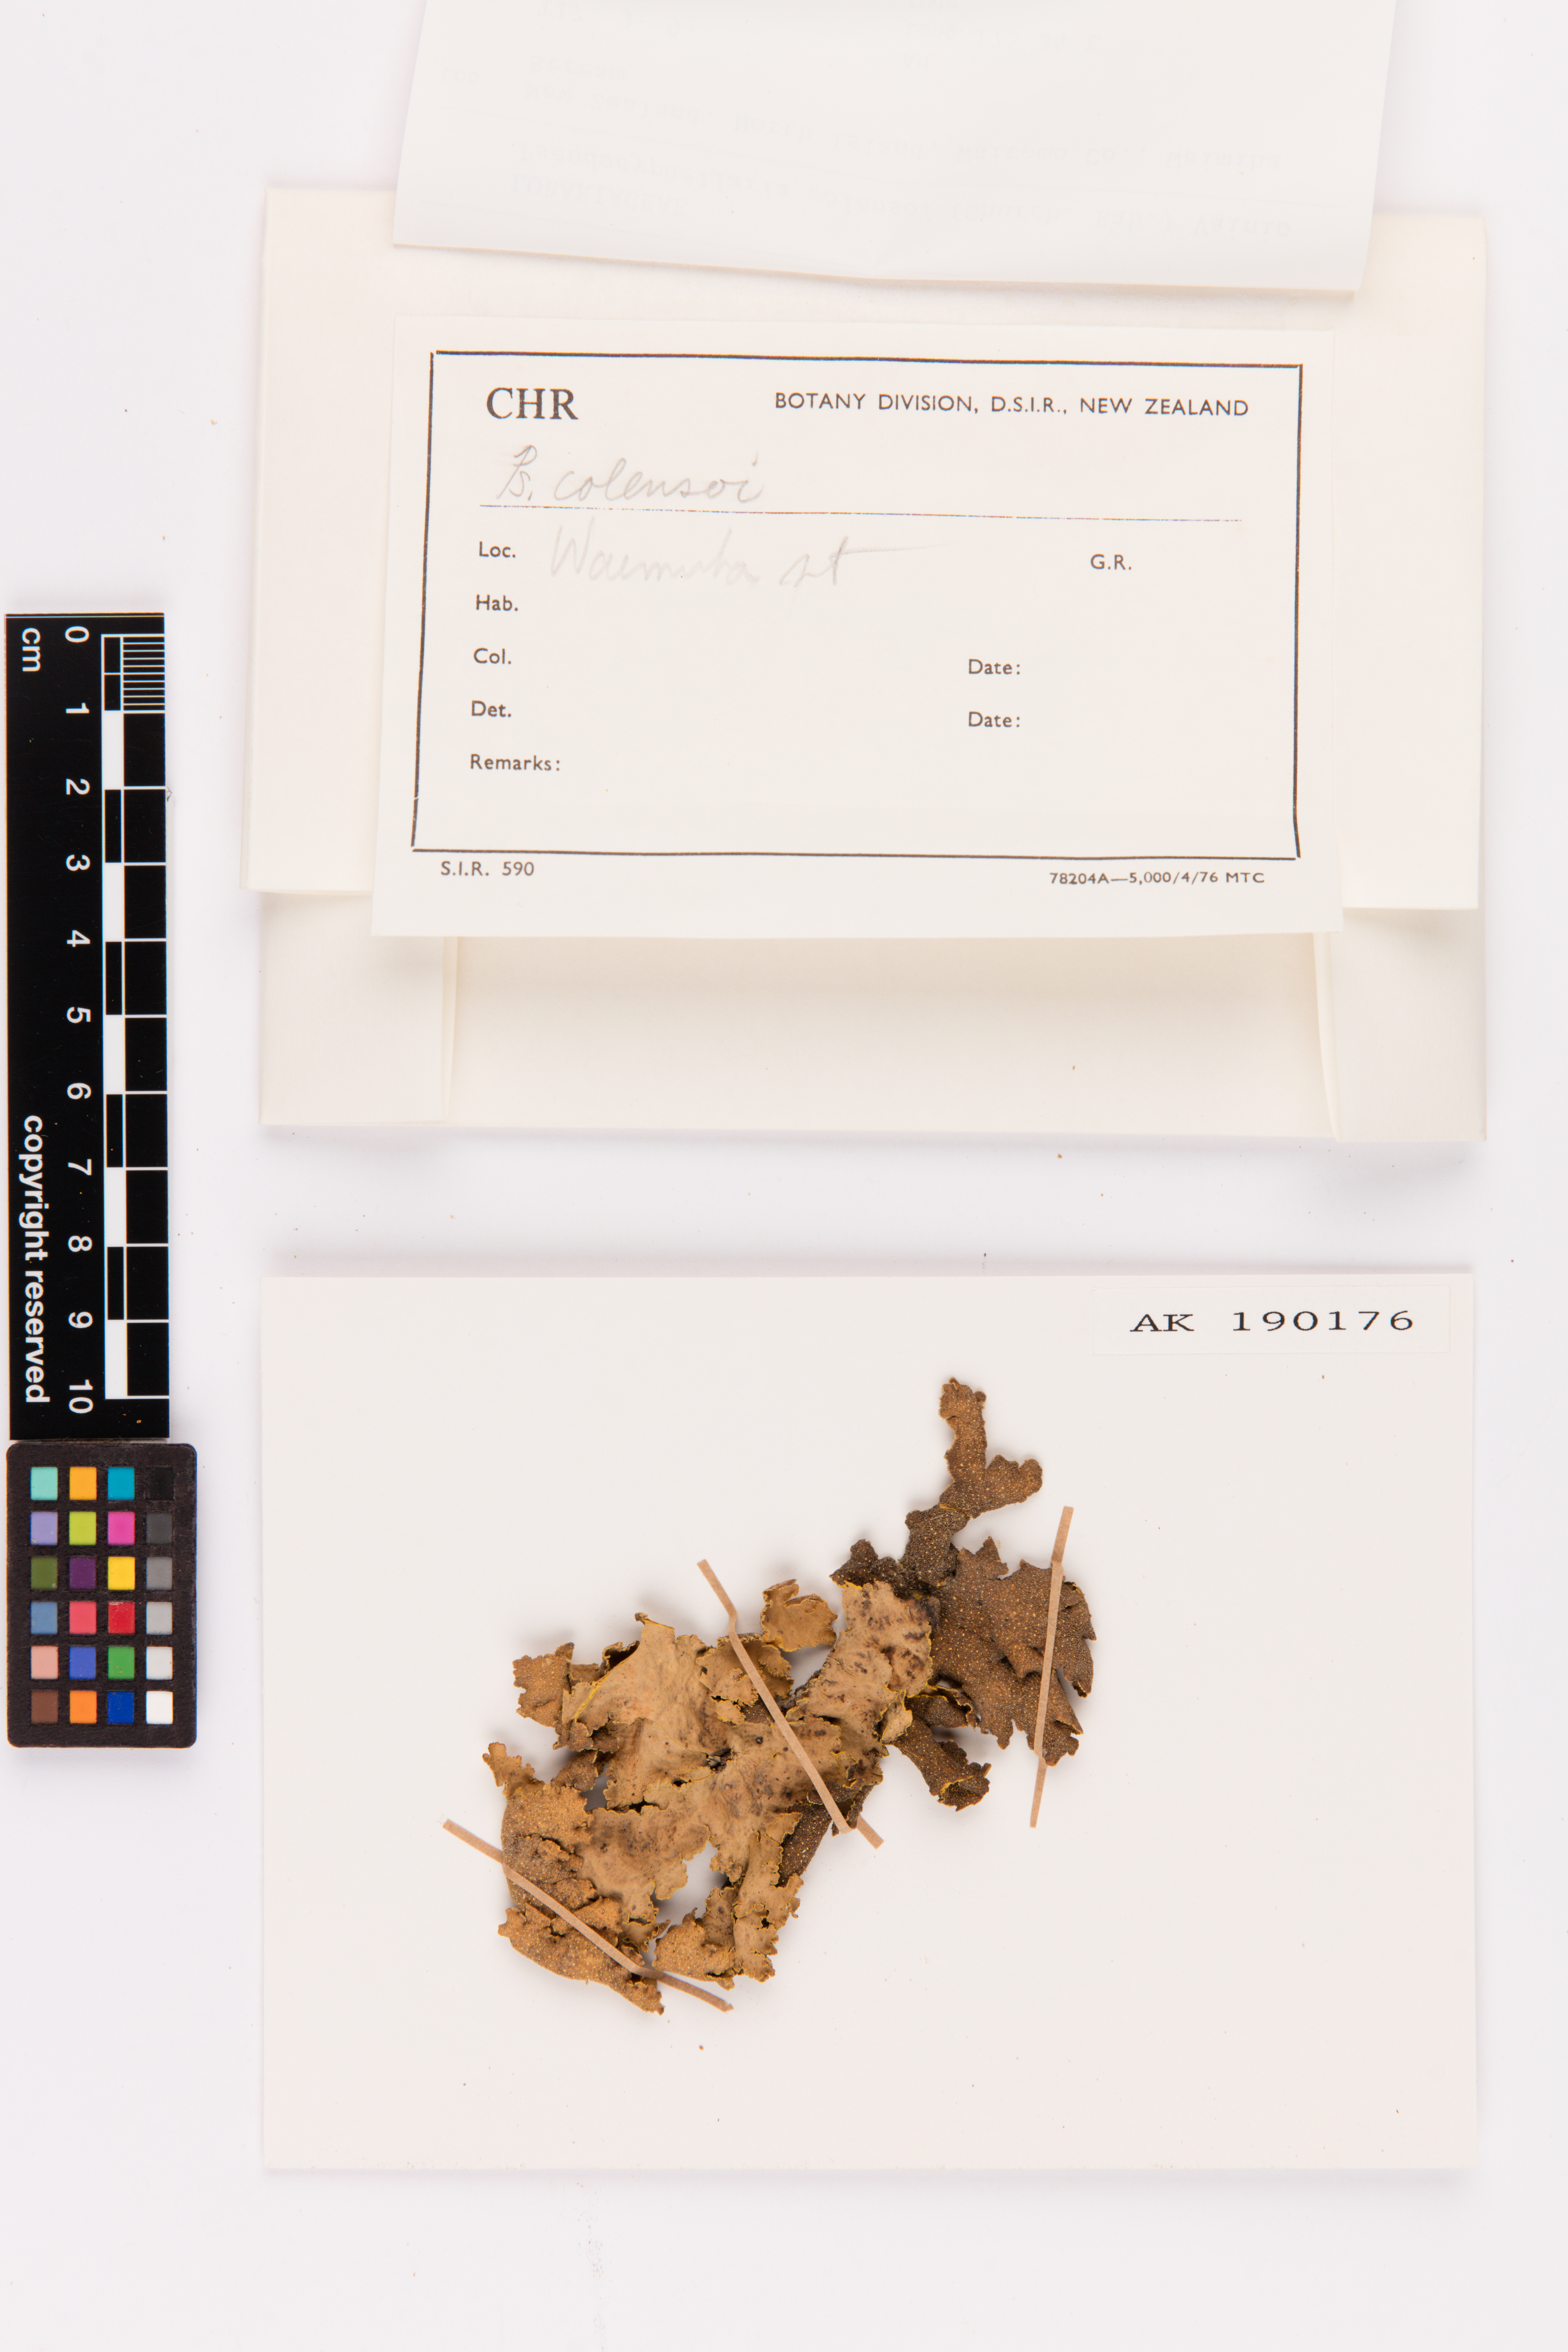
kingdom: Fungi
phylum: Ascomycota
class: Lecanoromycetes
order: Peltigerales
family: Lobariaceae
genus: Yarrumia
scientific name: Yarrumia colensoi
